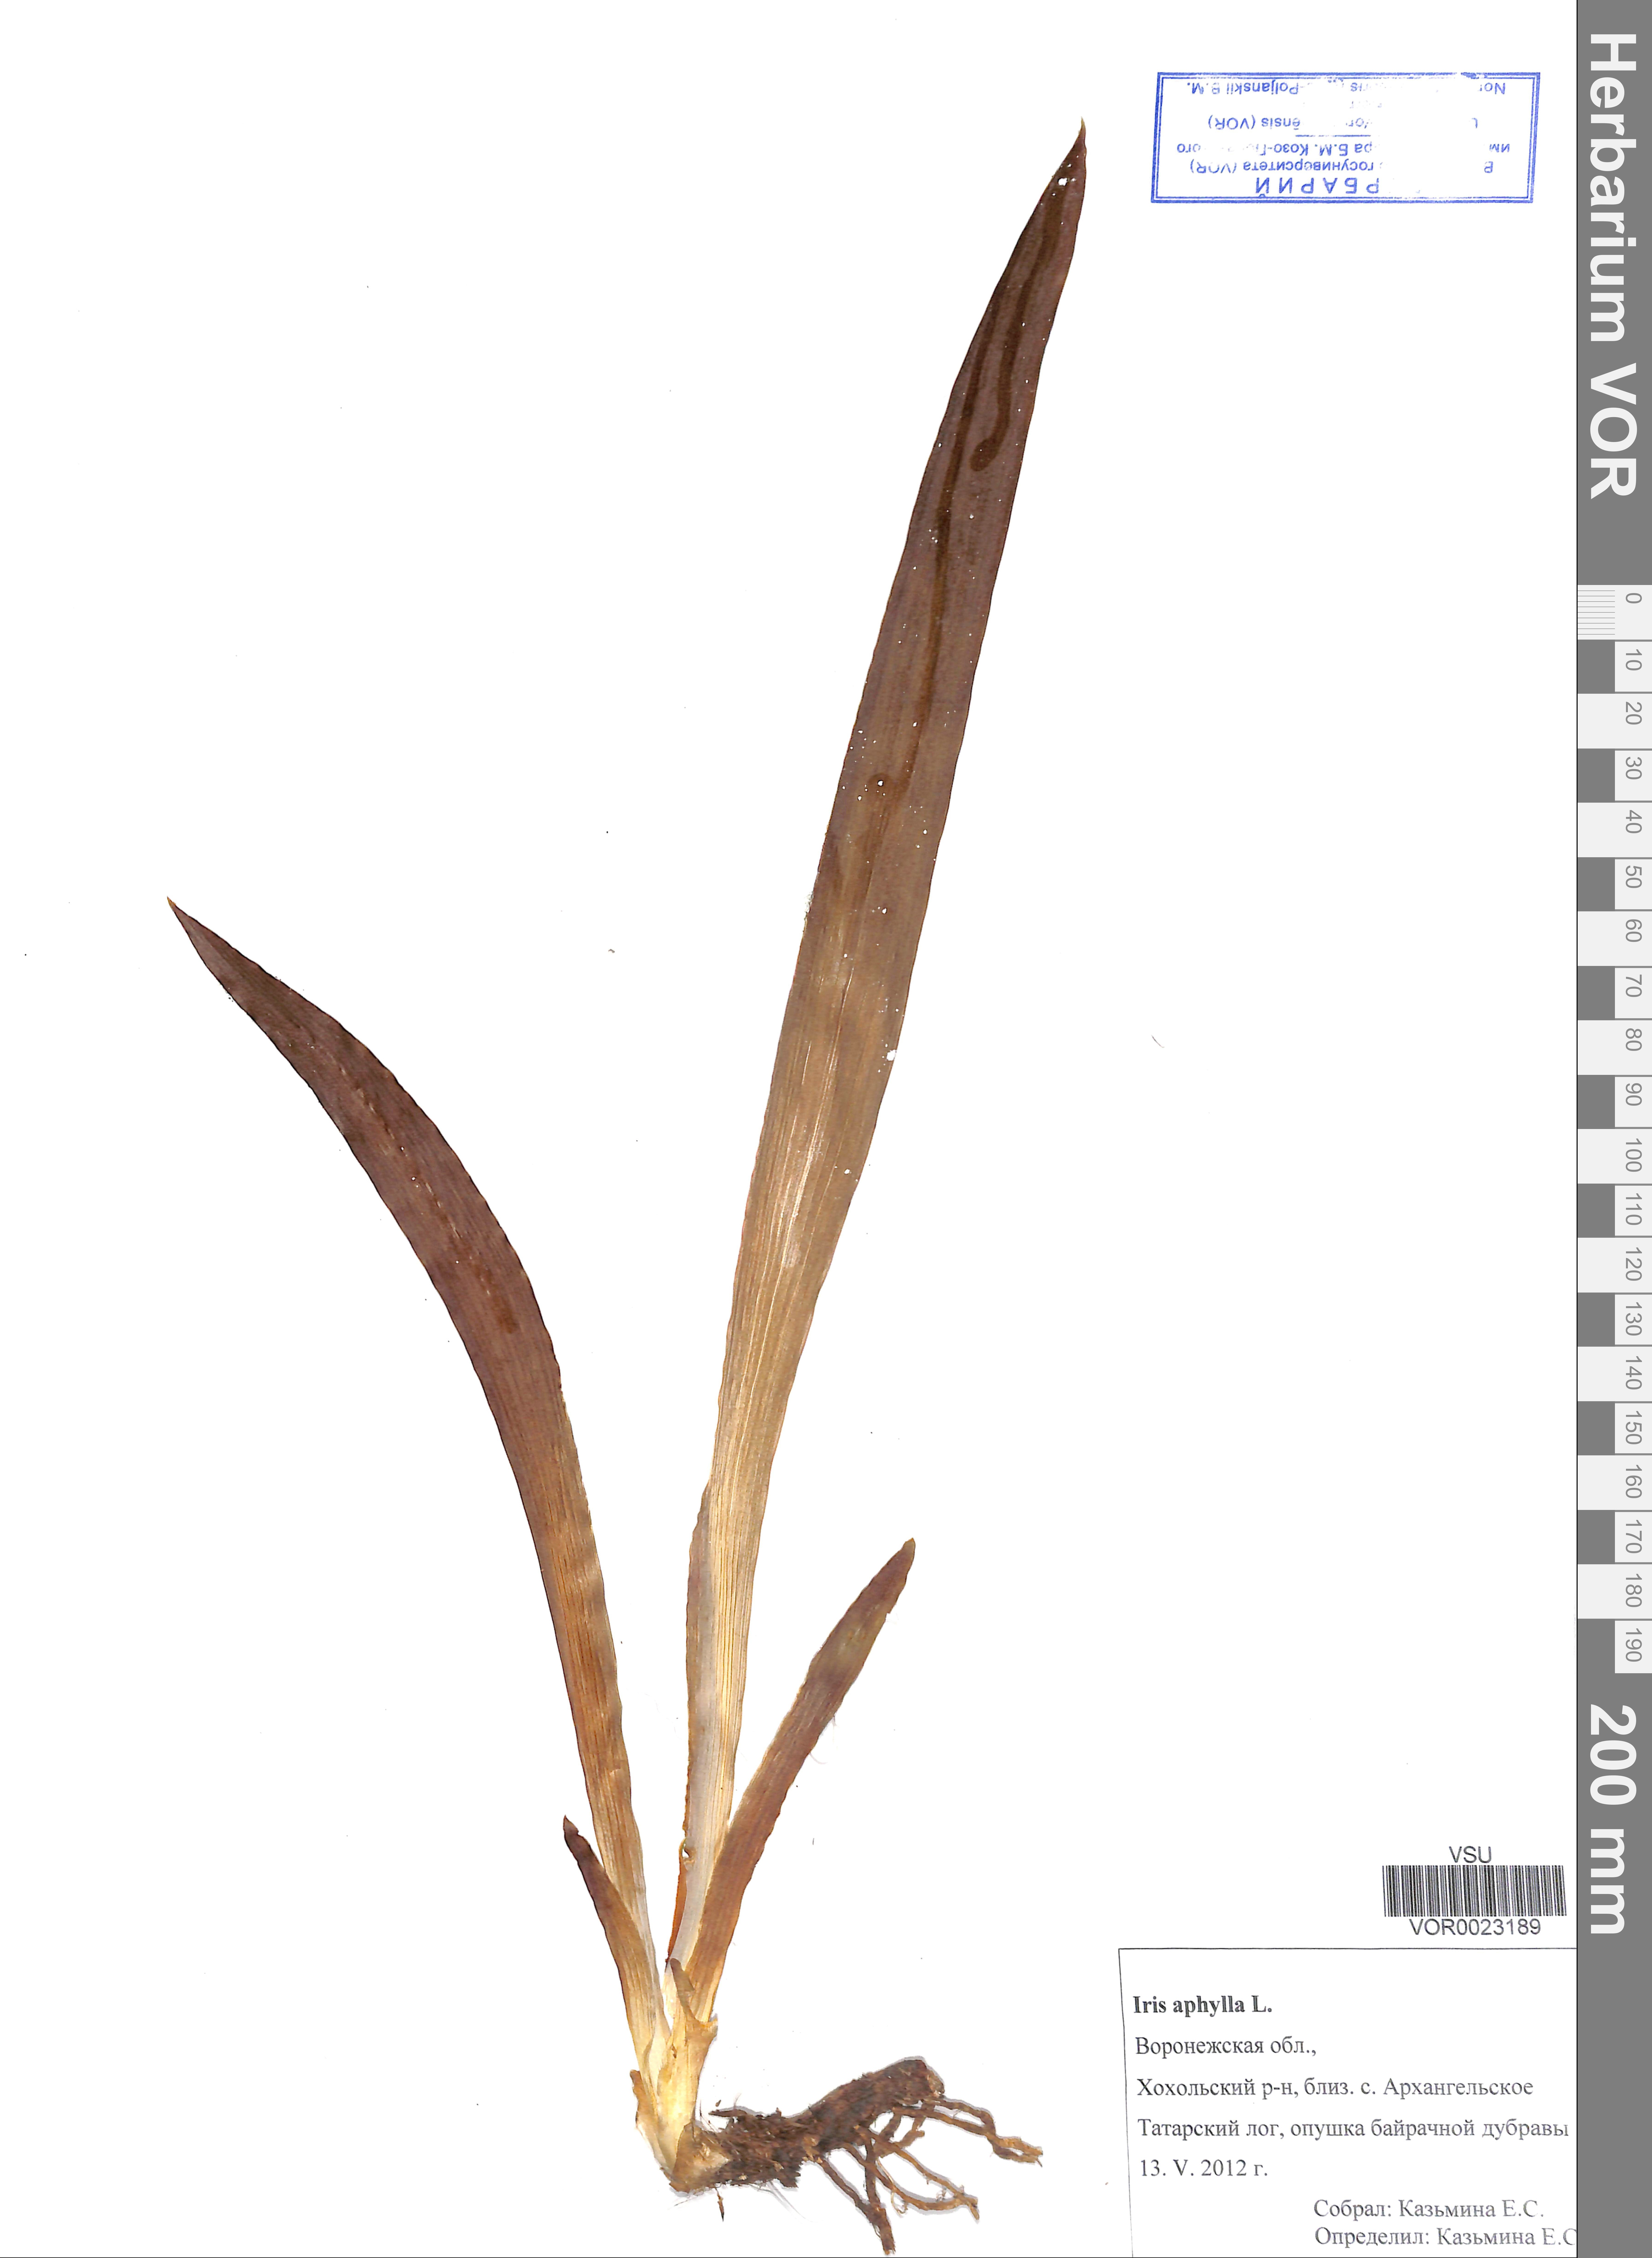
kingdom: Plantae
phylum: Tracheophyta
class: Liliopsida
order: Asparagales
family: Iridaceae
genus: Iris
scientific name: Iris aphylla
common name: Stool iris
